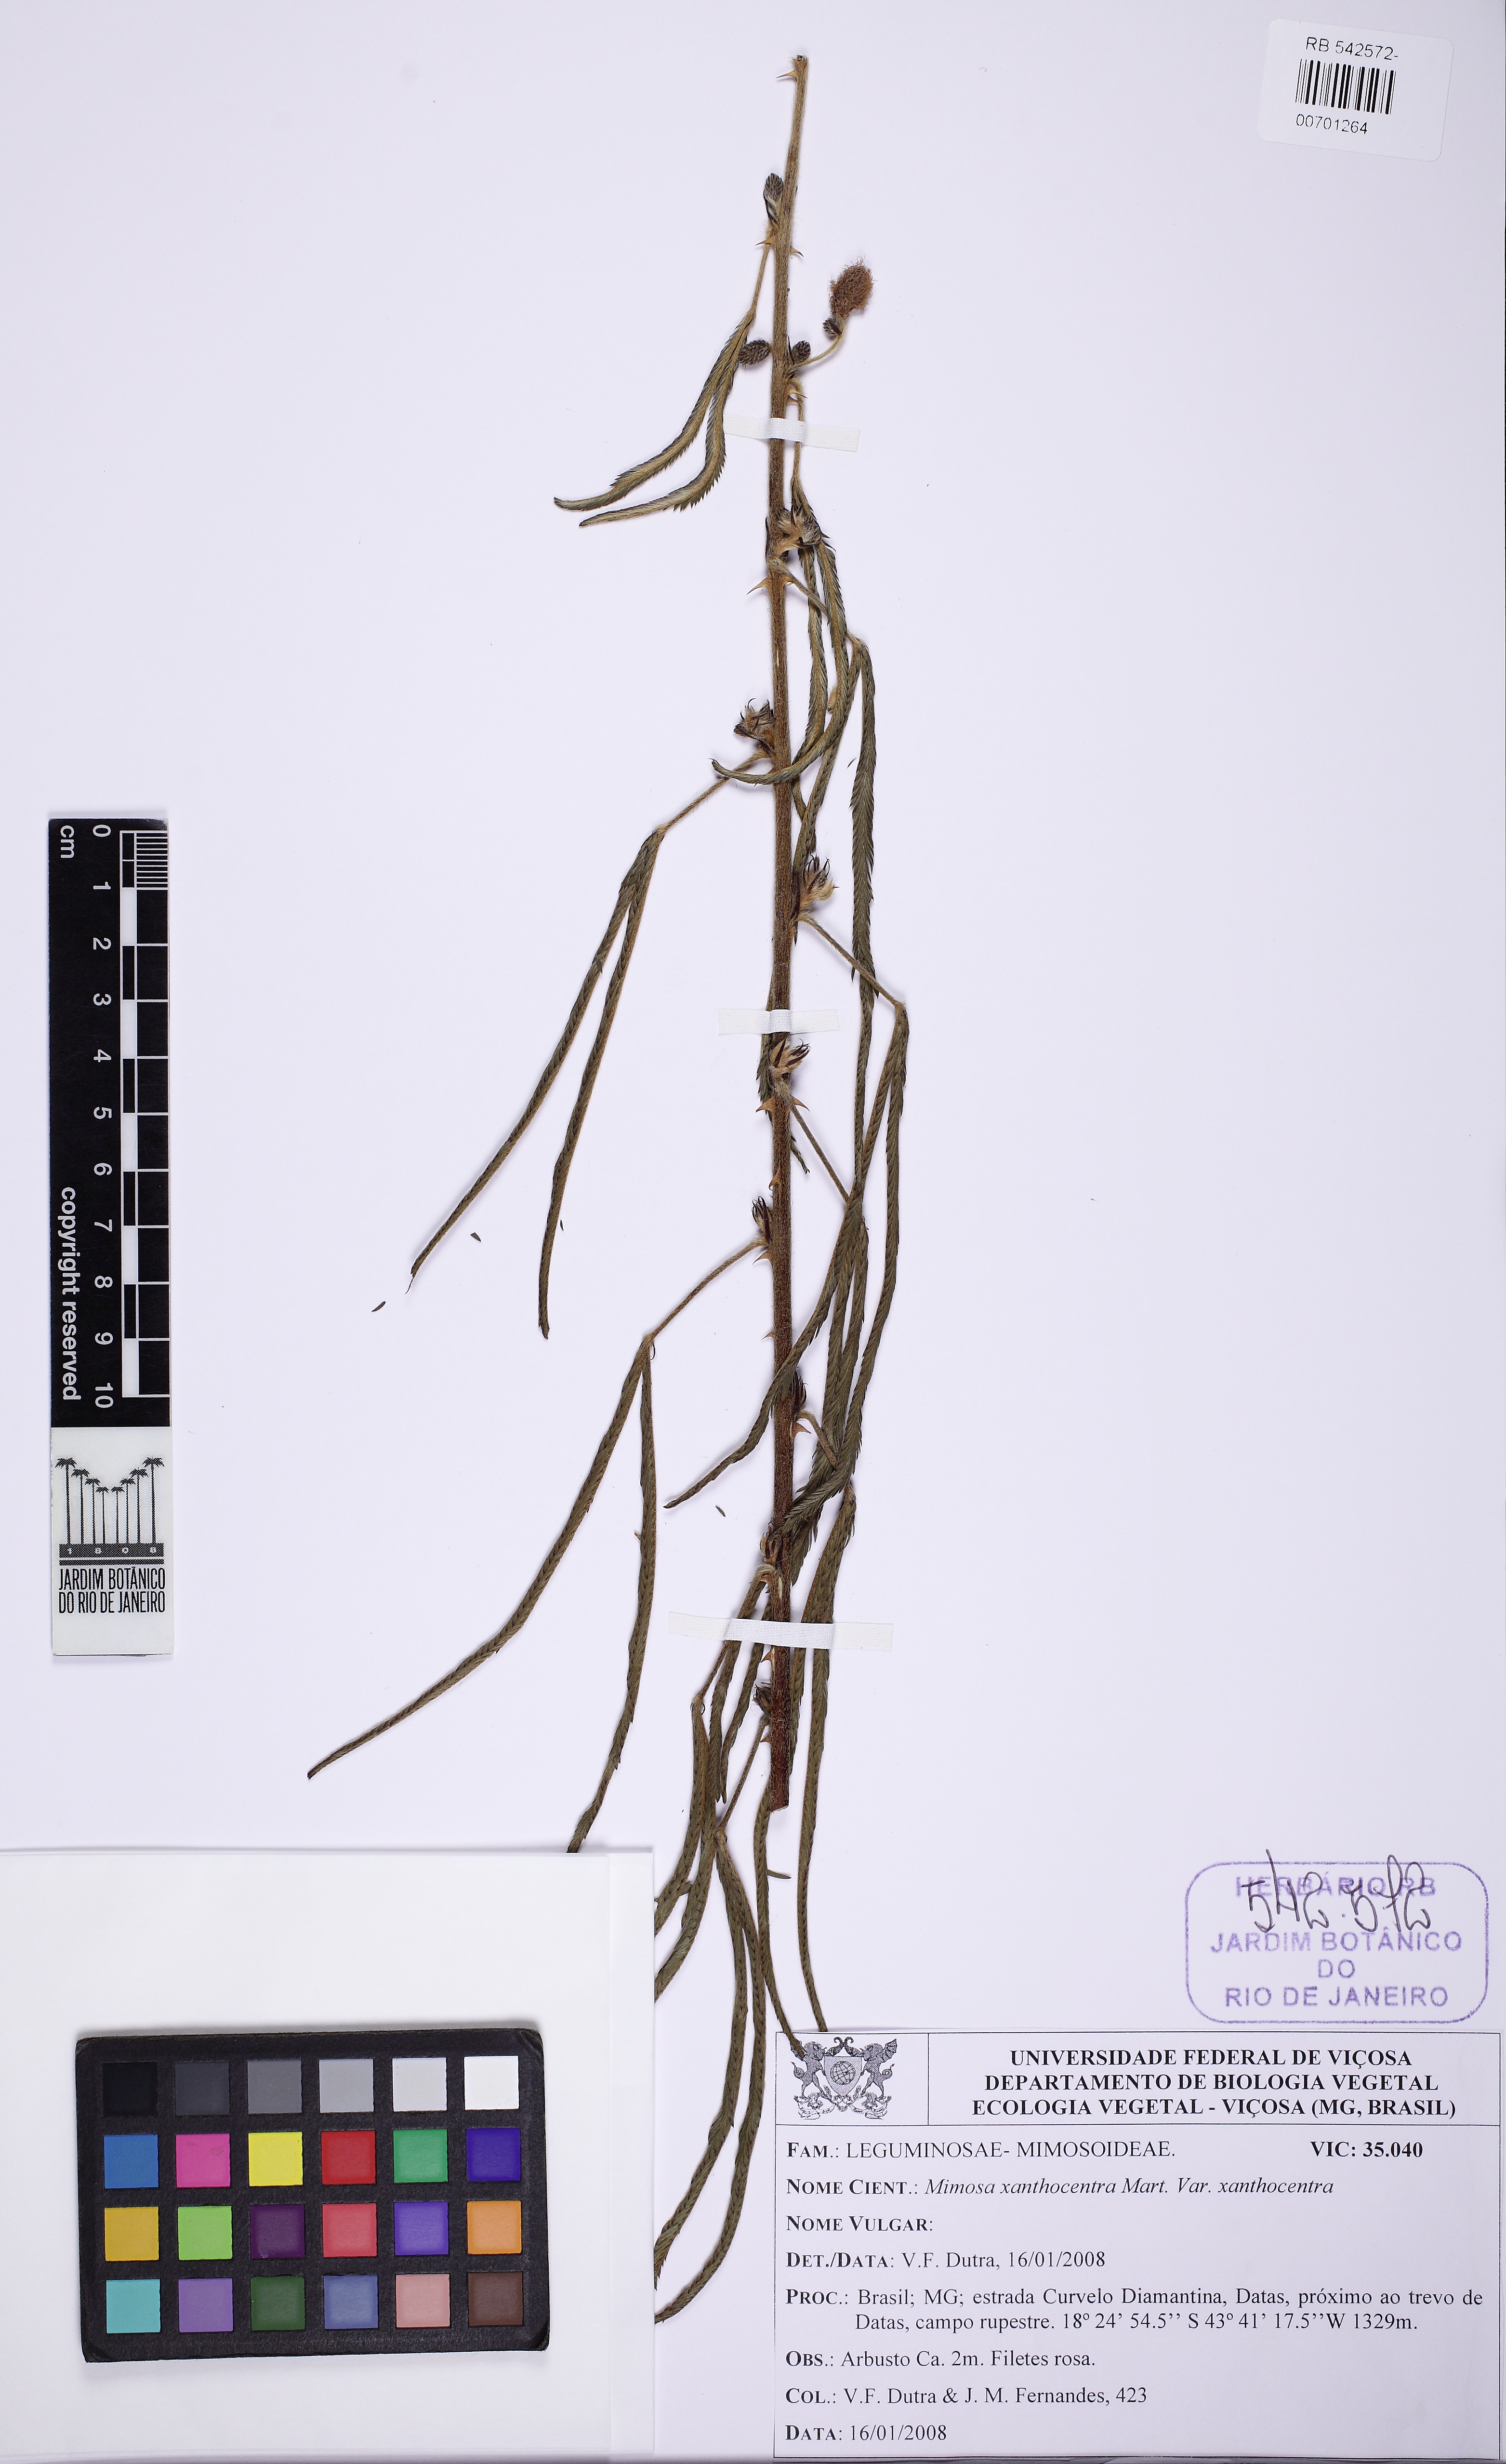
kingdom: Plantae
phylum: Tracheophyta
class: Magnoliopsida
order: Fabales
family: Fabaceae
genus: Mimosa
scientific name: Mimosa xanthocentra
